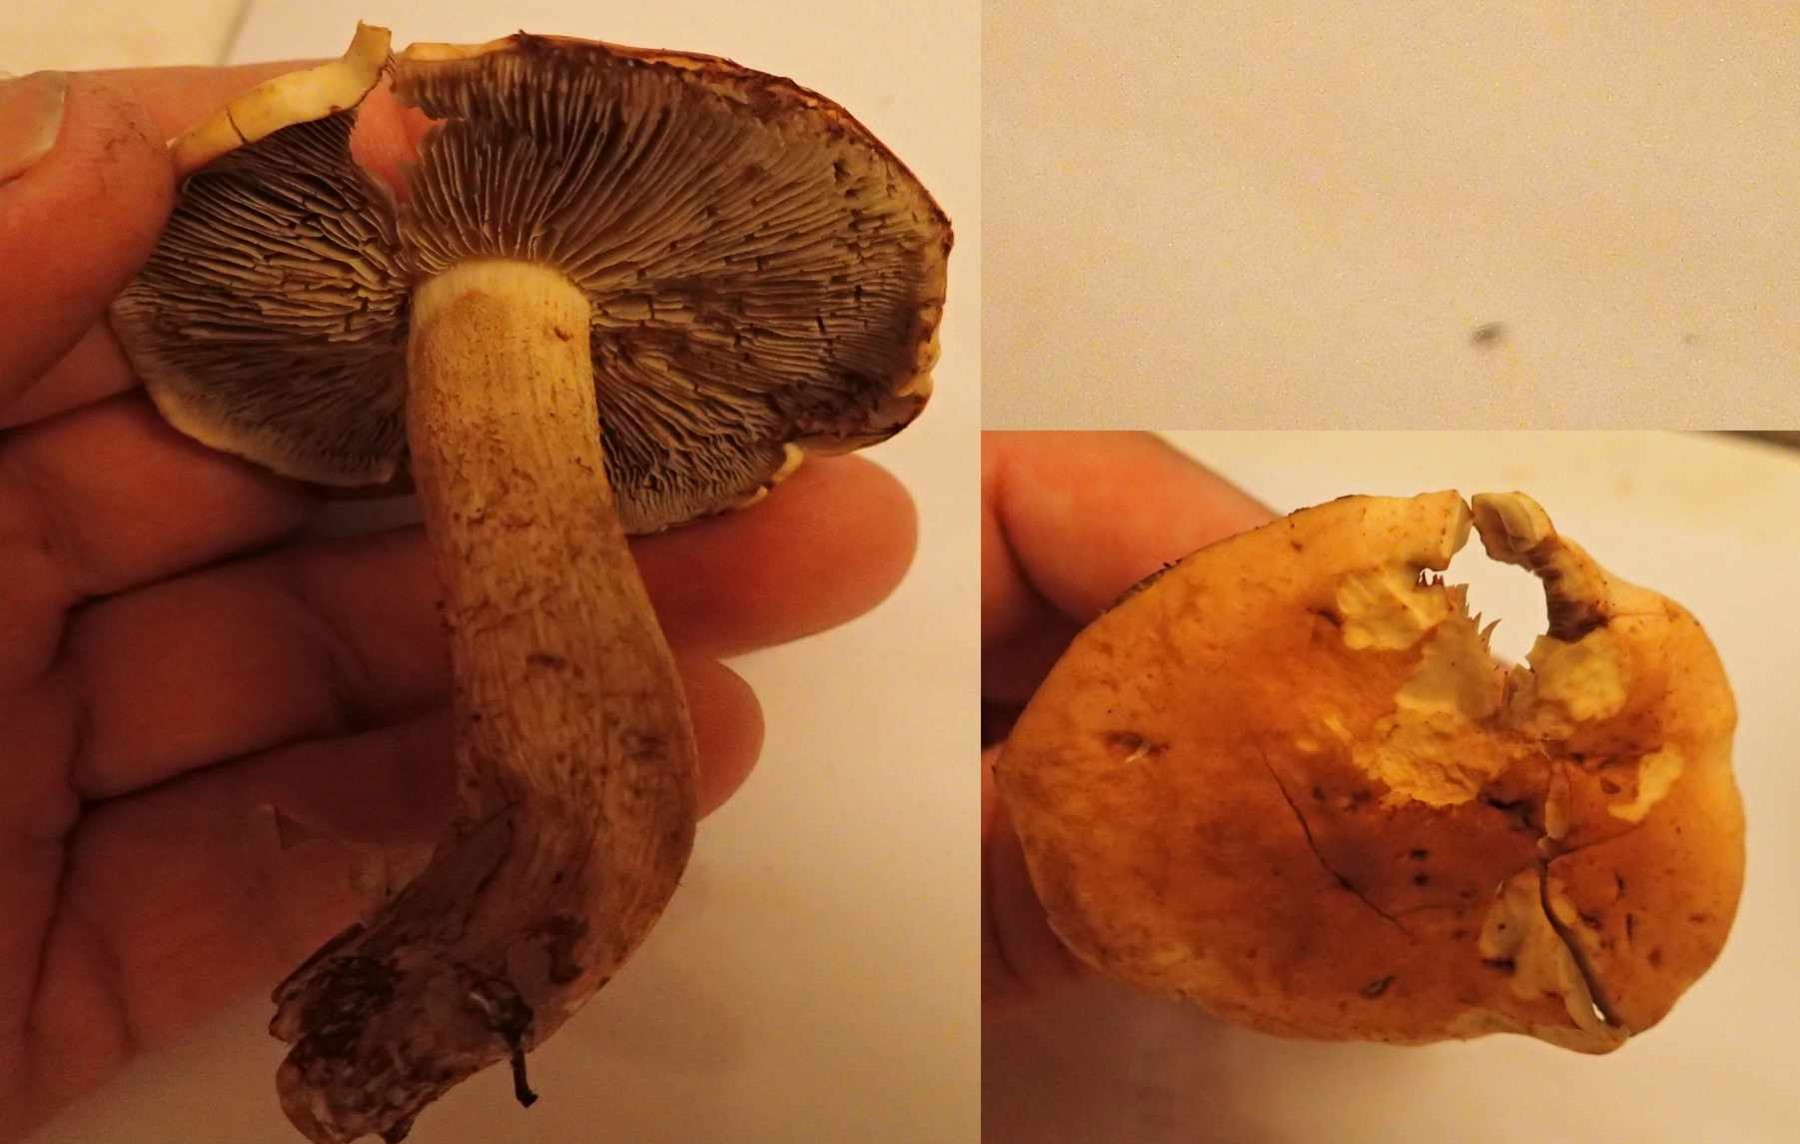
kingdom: Fungi
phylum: Basidiomycota
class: Agaricomycetes
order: Agaricales
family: Hymenogastraceae
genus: Gymnopilus
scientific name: Gymnopilus spectabilis
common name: fibret flammehat
